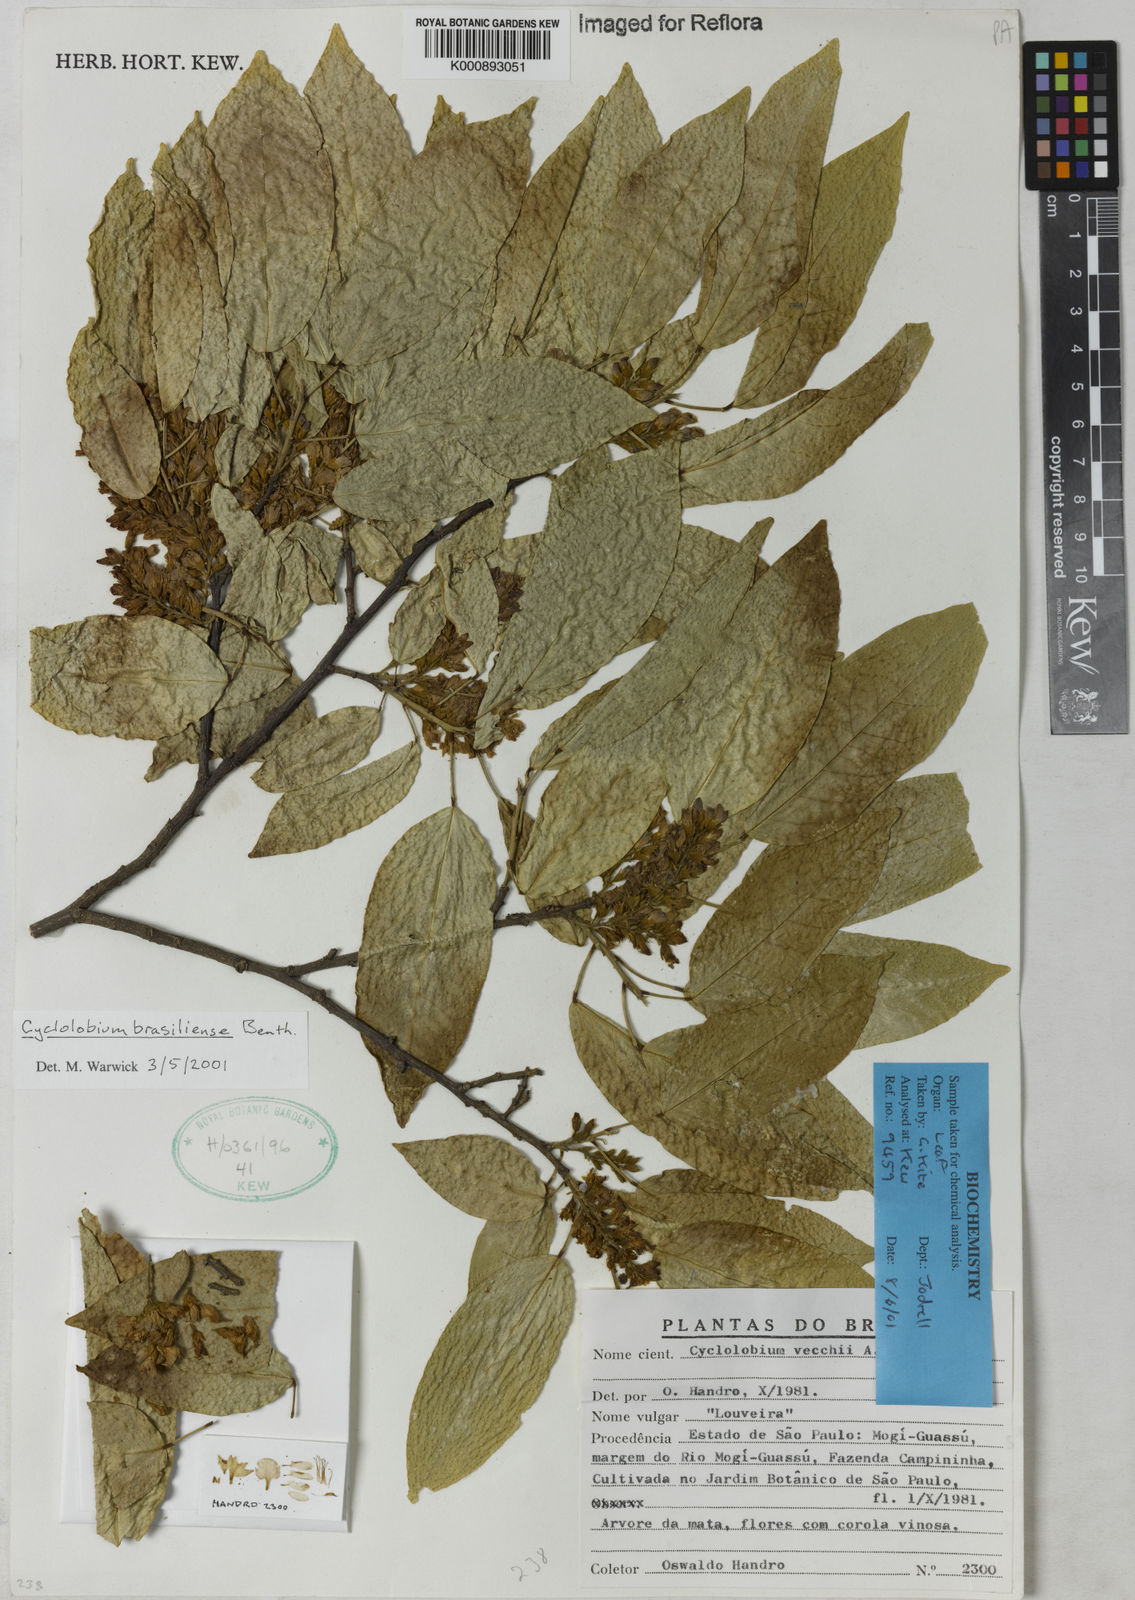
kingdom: Plantae
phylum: Tracheophyta
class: Magnoliopsida
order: Fabales
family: Fabaceae
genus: Cyclolobium
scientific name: Cyclolobium brasiliense
